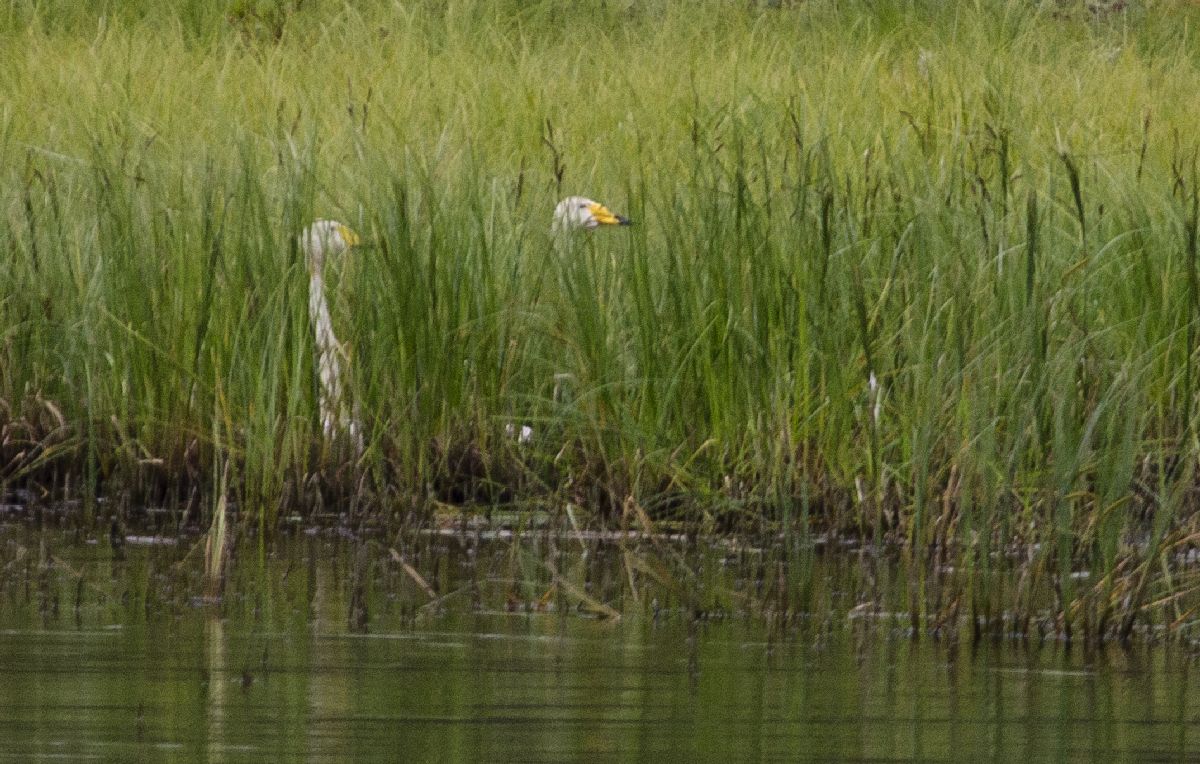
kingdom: Animalia
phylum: Chordata
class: Aves
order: Anseriformes
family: Anatidae
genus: Cygnus
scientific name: Cygnus cygnus
